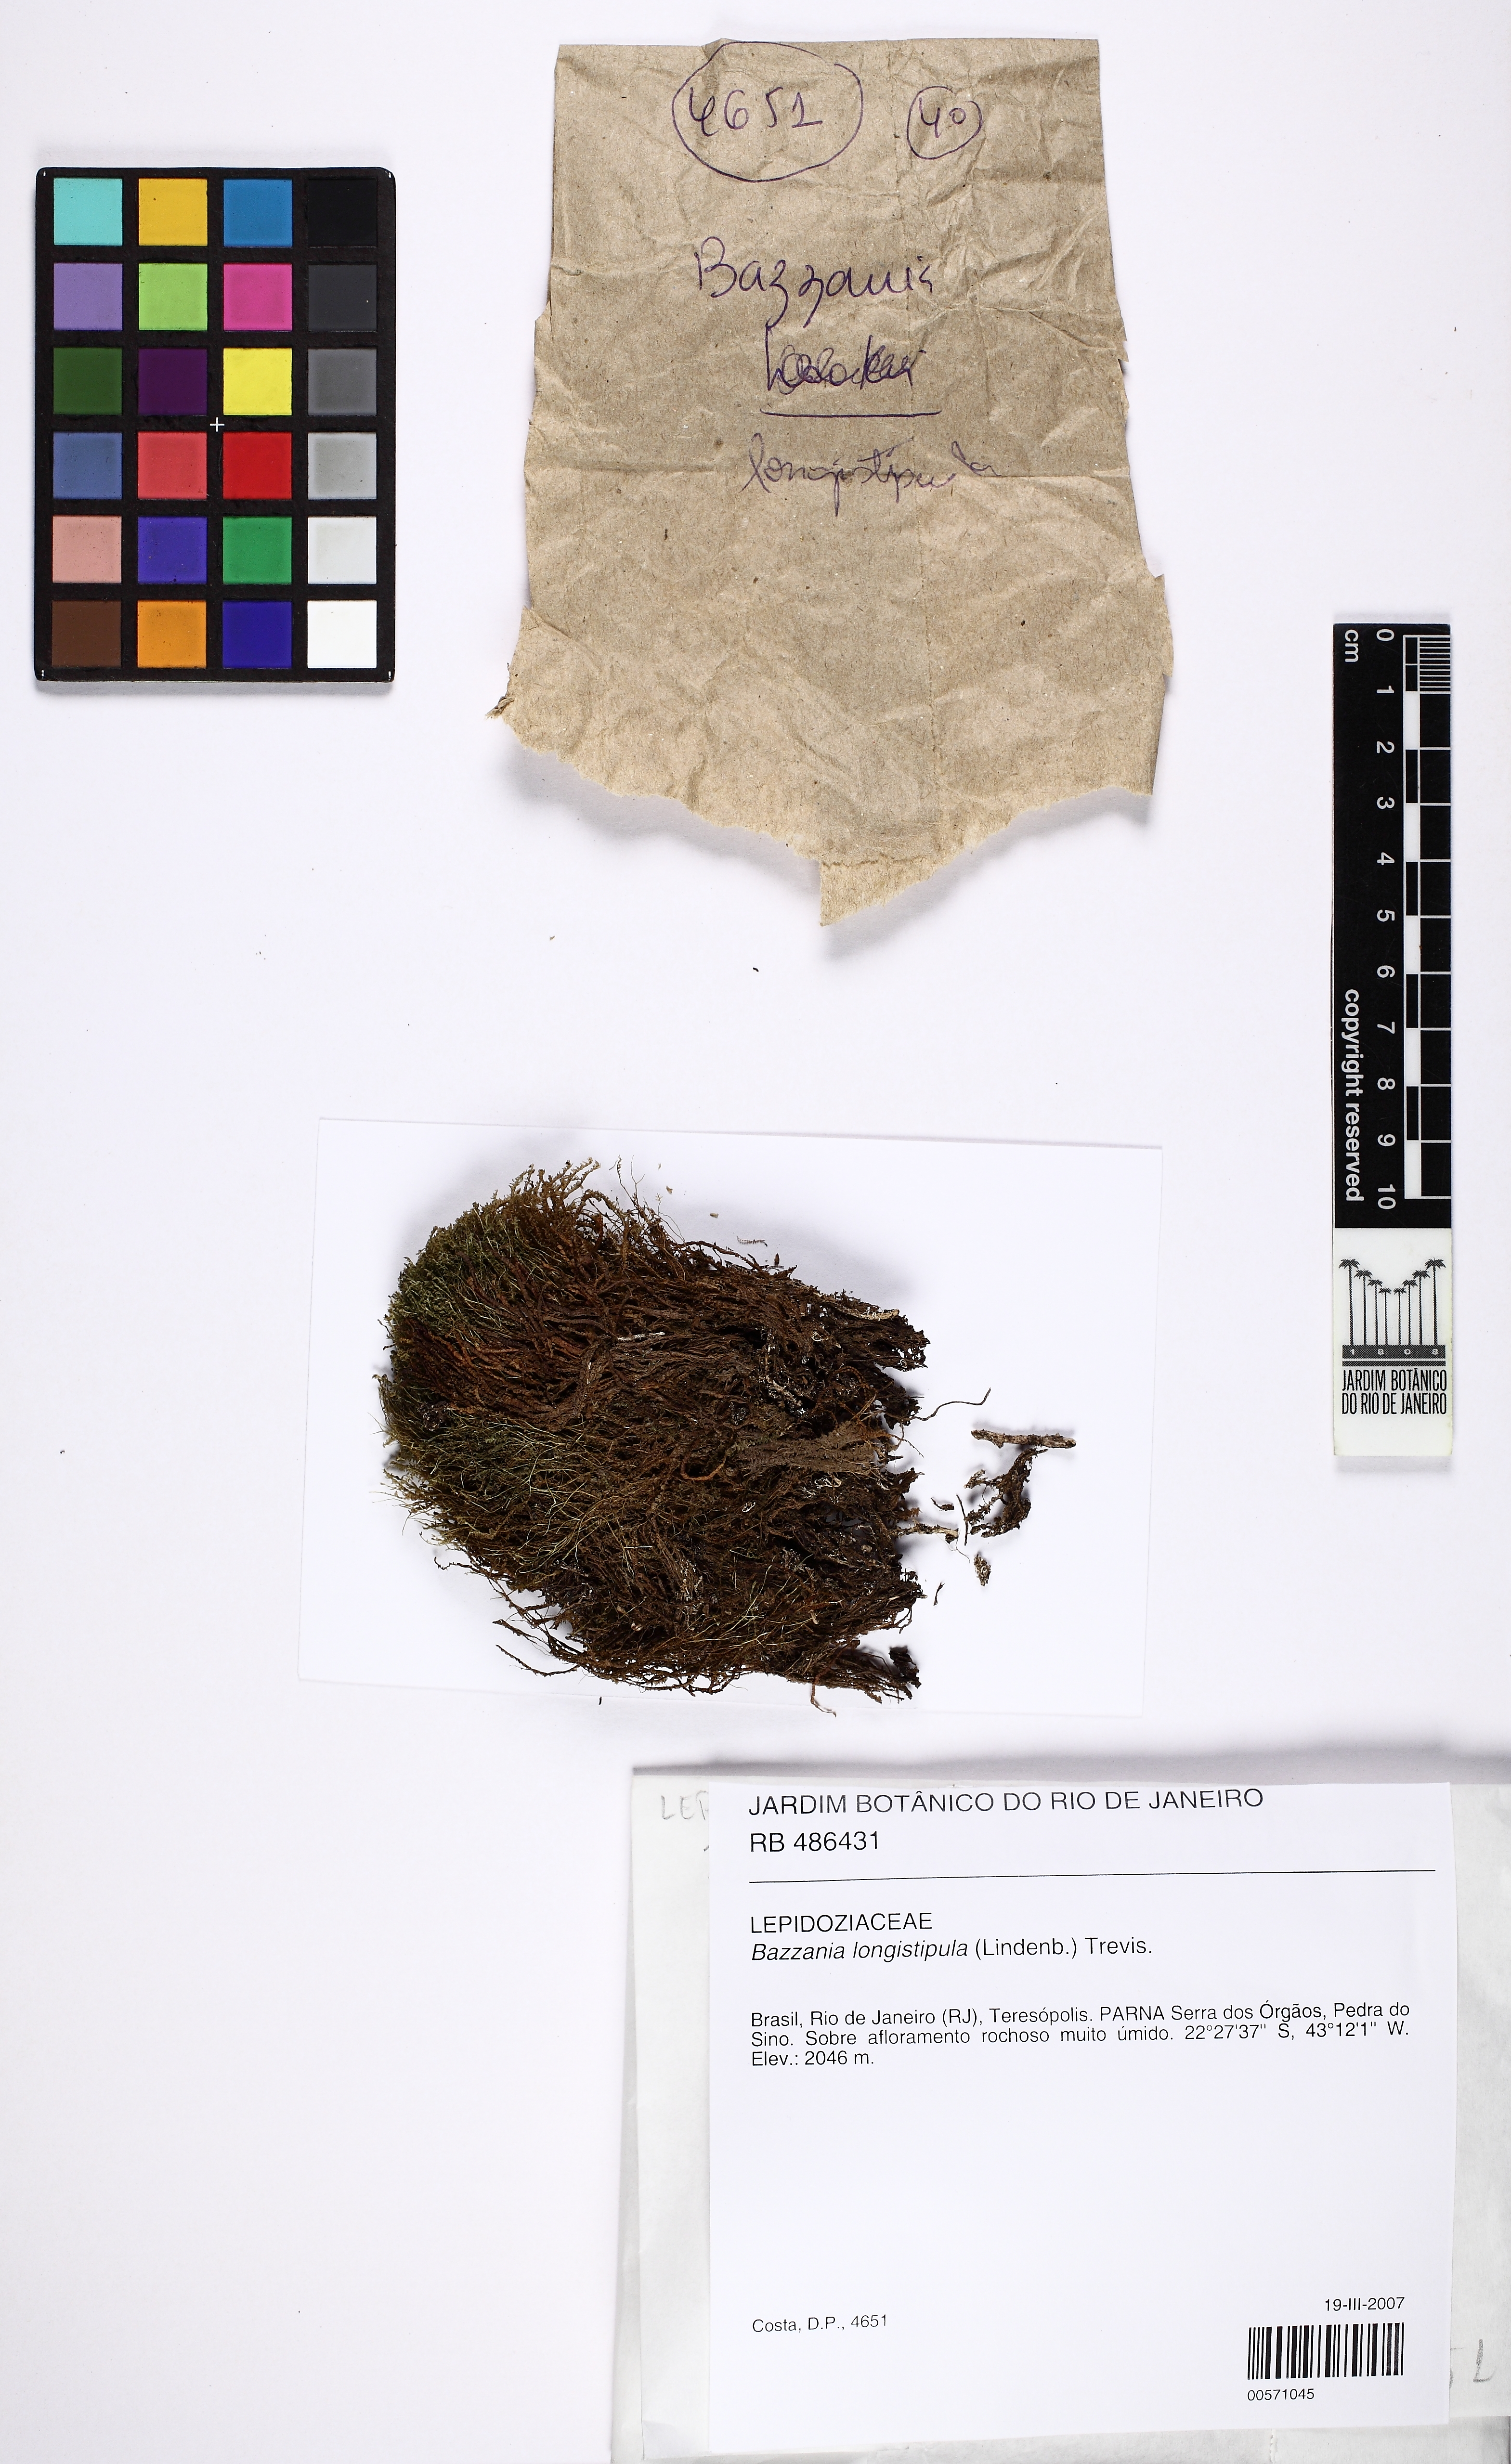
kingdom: Plantae
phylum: Marchantiophyta
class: Jungermanniopsida
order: Jungermanniales
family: Lepidoziaceae
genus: Bazzania
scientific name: Bazzania longistipula
